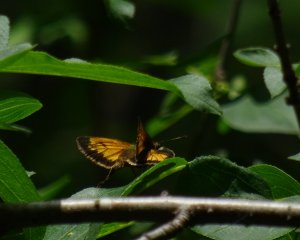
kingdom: Animalia
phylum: Arthropoda
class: Insecta
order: Lepidoptera
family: Hesperiidae
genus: Lon
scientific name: Lon hobomok
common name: Hobomok Skipper
